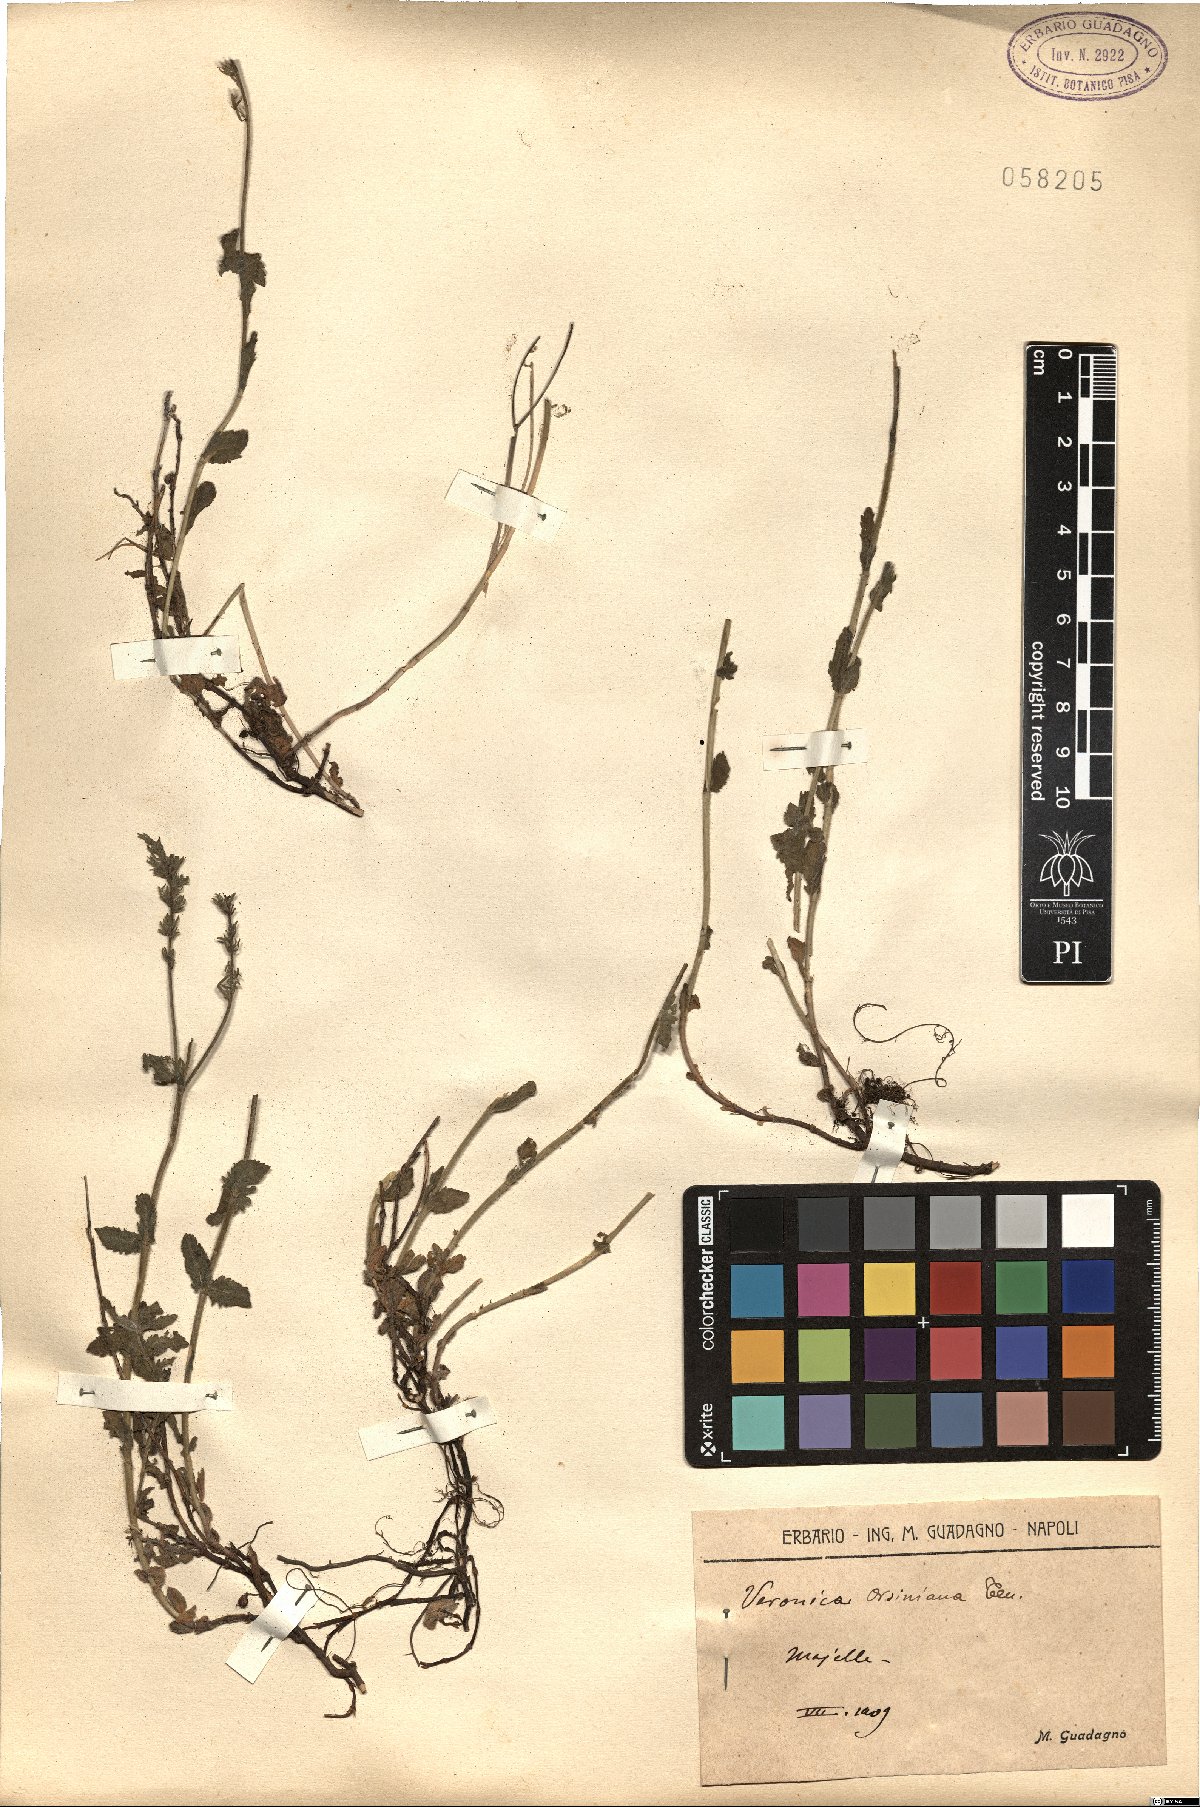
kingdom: Plantae
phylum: Tracheophyta
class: Magnoliopsida
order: Lamiales
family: Plantaginaceae
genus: Veronica
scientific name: Veronica orsiniana
